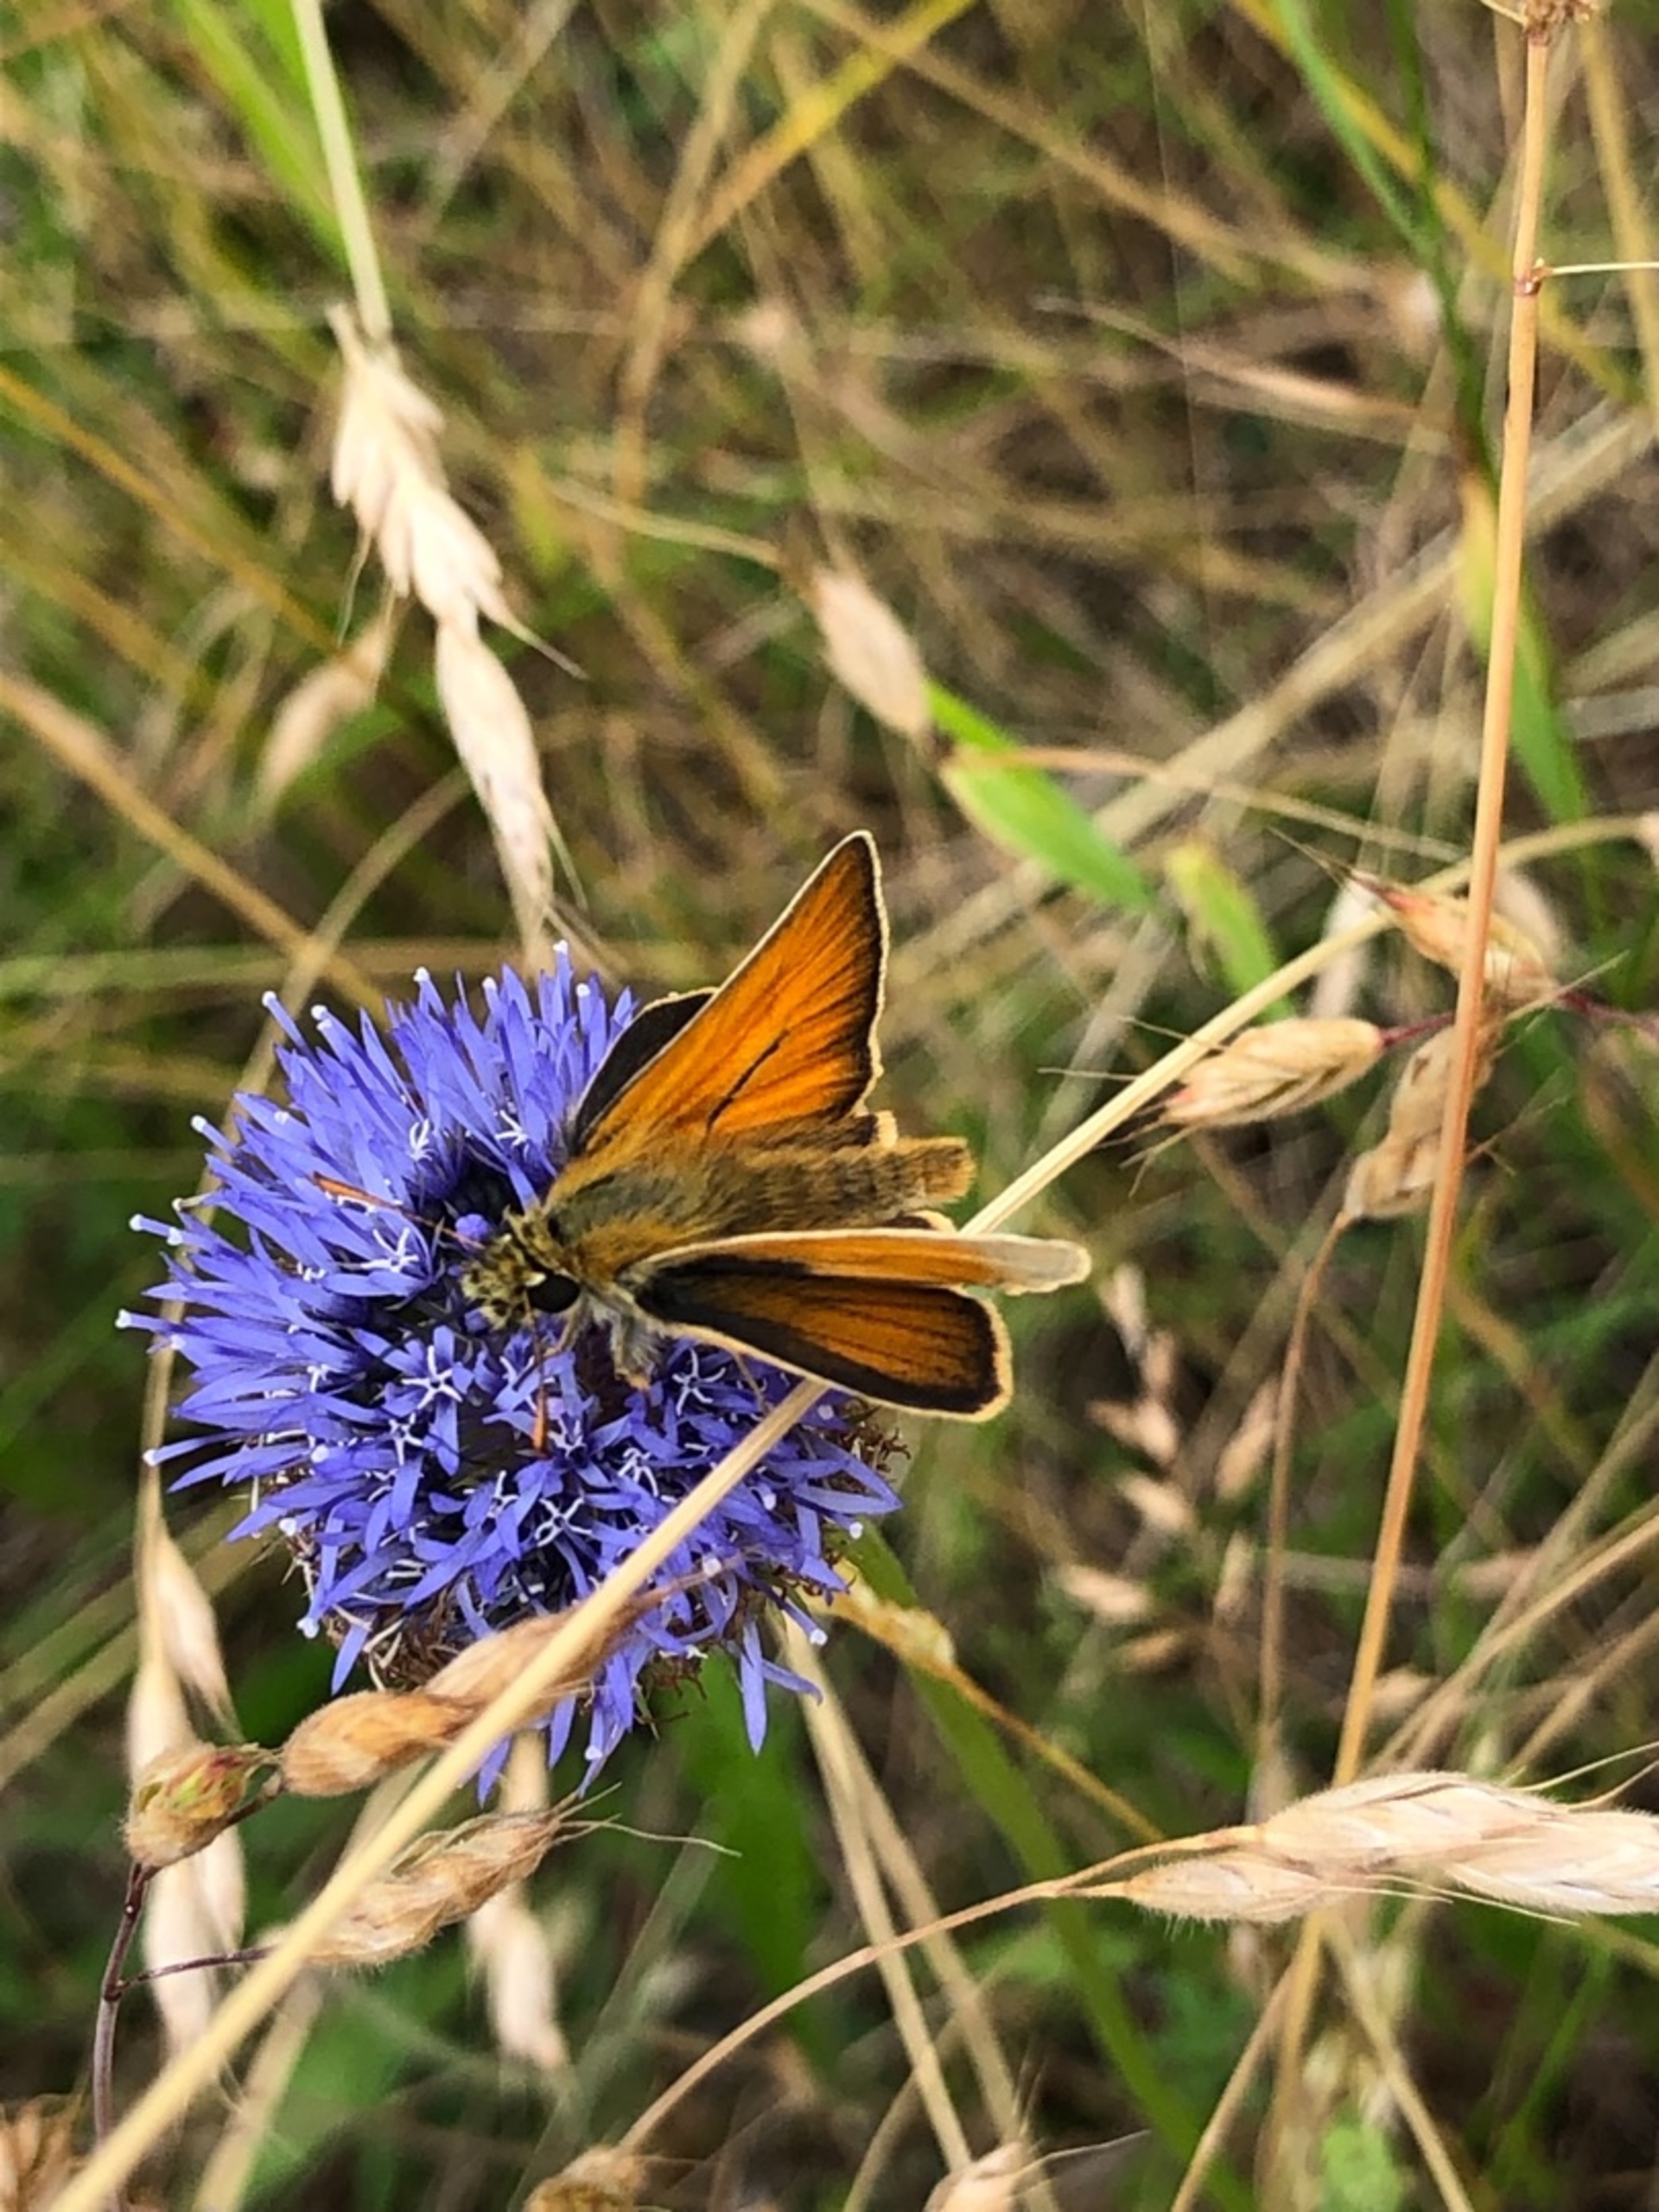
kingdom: Animalia
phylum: Arthropoda
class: Insecta
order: Lepidoptera
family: Hesperiidae
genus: Thymelicus
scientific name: Thymelicus sylvestris
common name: Skråstregbredpande
